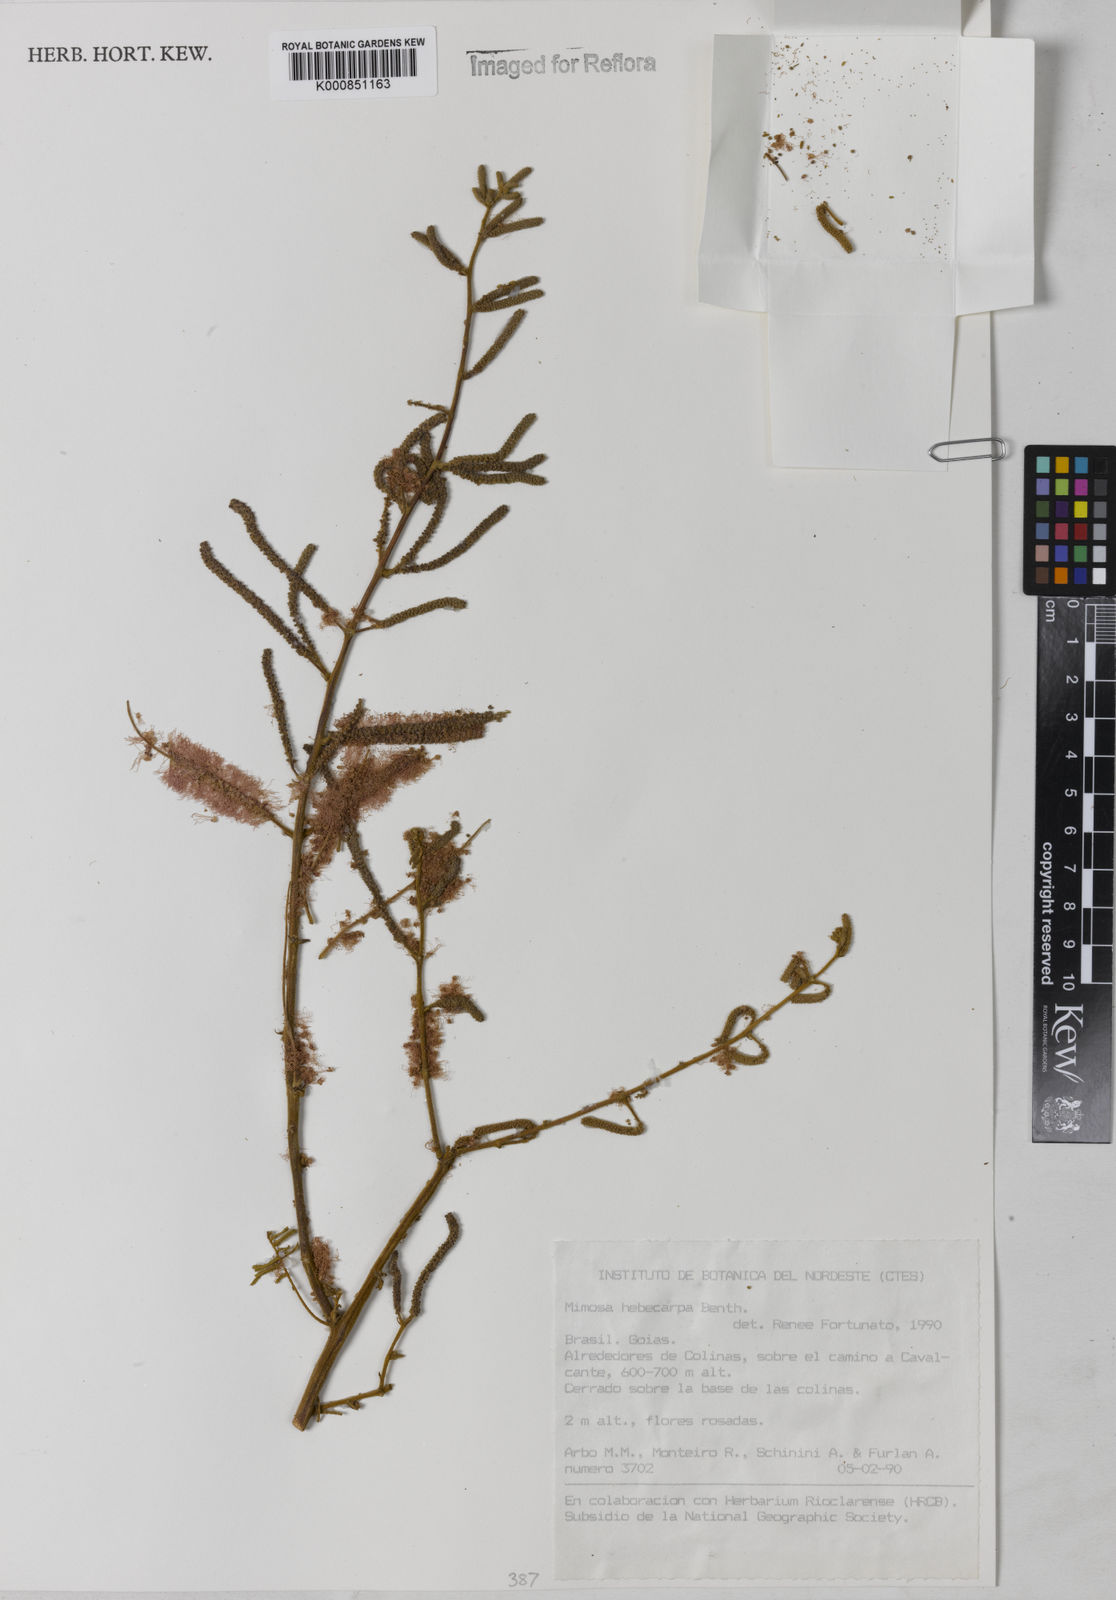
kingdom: Plantae
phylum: Tracheophyta
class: Magnoliopsida
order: Fabales
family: Fabaceae
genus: Mimosa
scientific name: Mimosa hebecarpa
